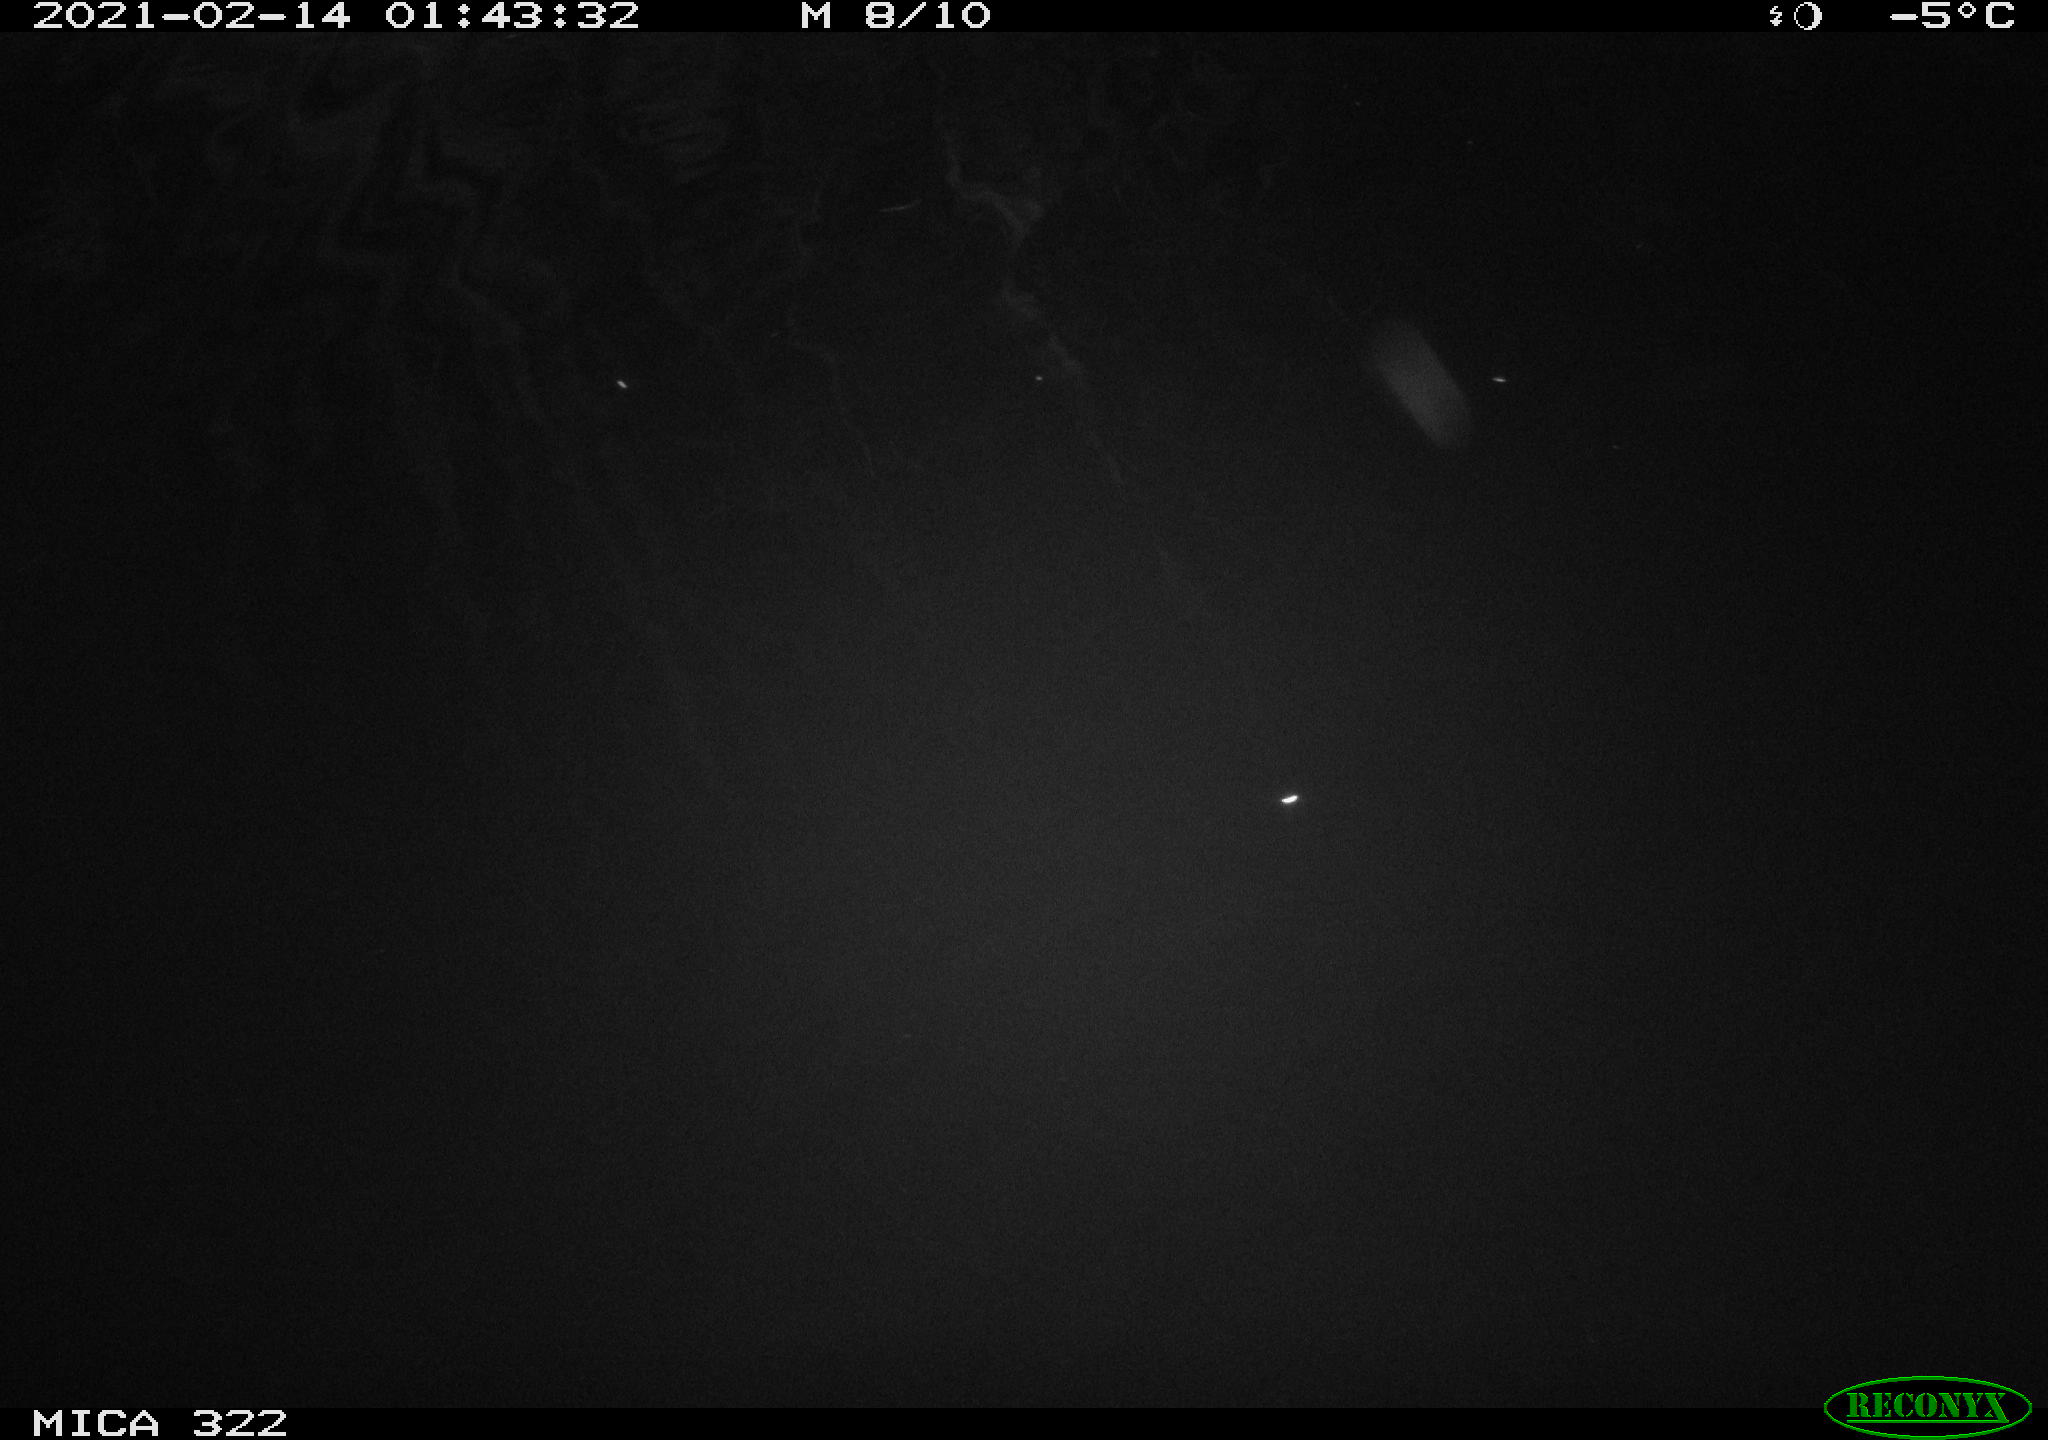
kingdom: Animalia
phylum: Chordata
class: Aves
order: Anseriformes
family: Anatidae
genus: Anas
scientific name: Anas platyrhynchos
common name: Mallard
